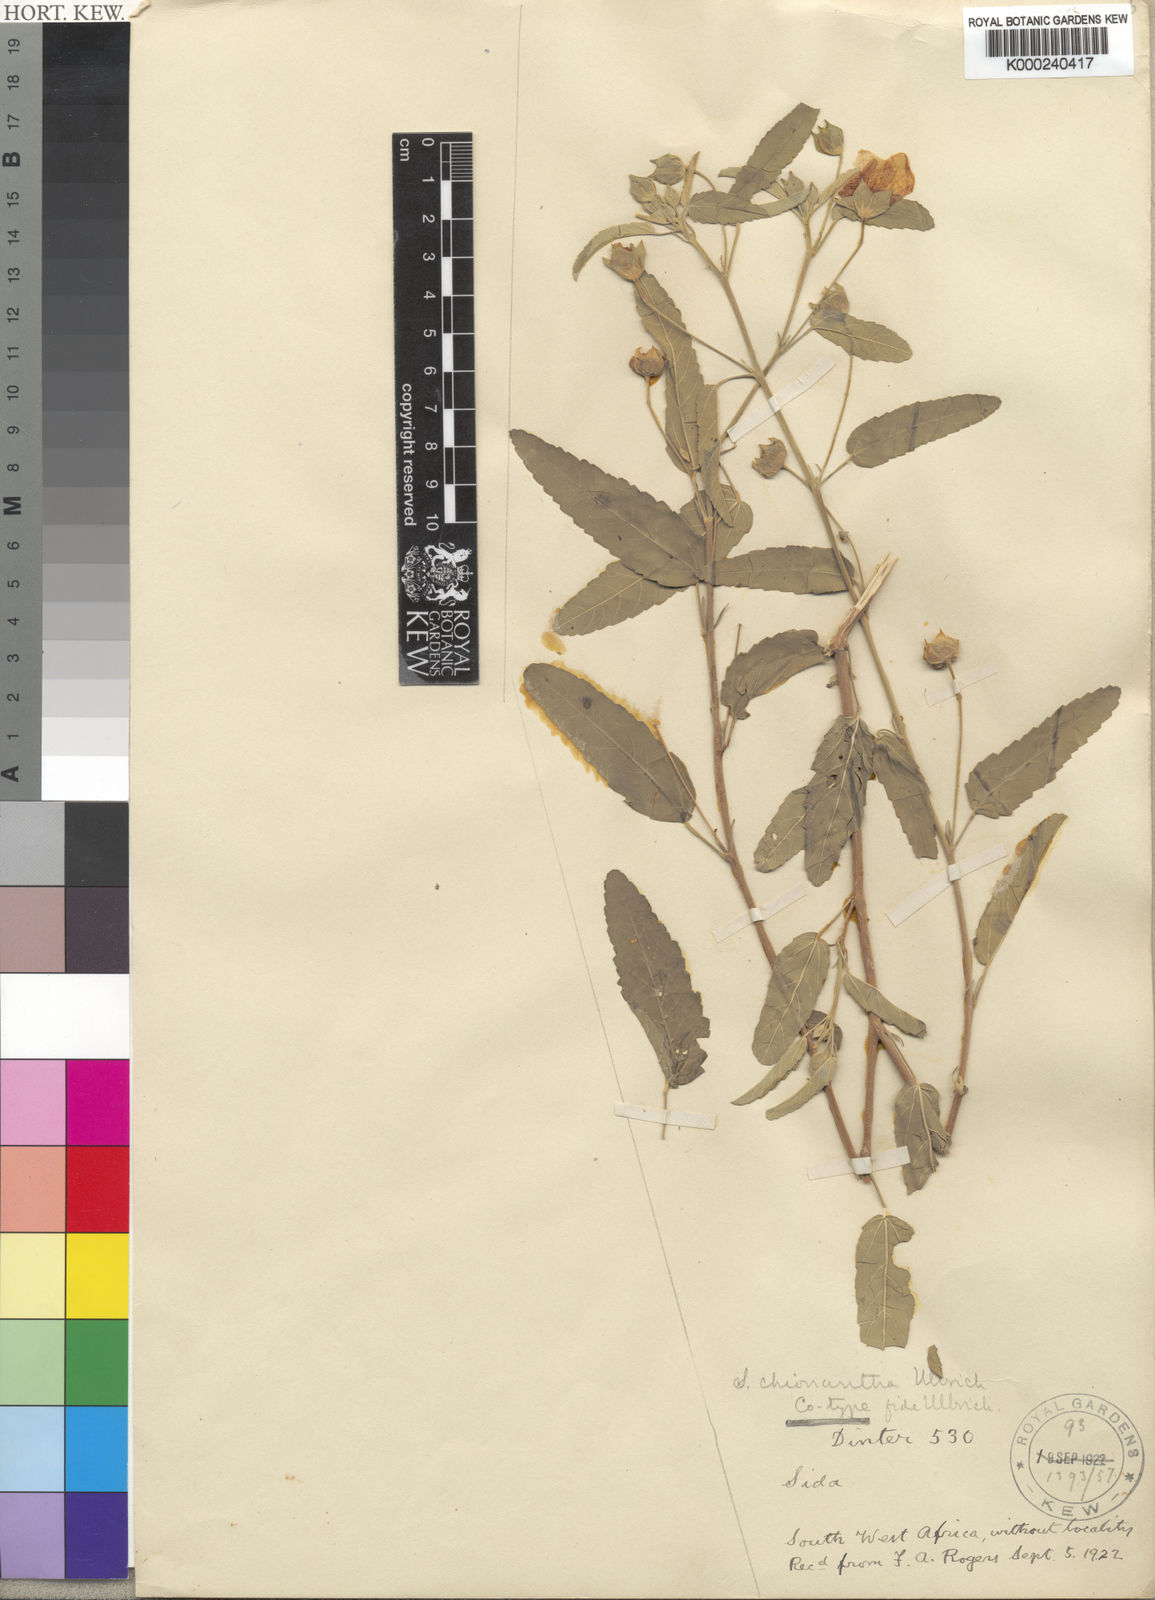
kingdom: Plantae
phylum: Tracheophyta
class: Magnoliopsida
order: Malvales
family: Malvaceae
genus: Sida
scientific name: Sida
